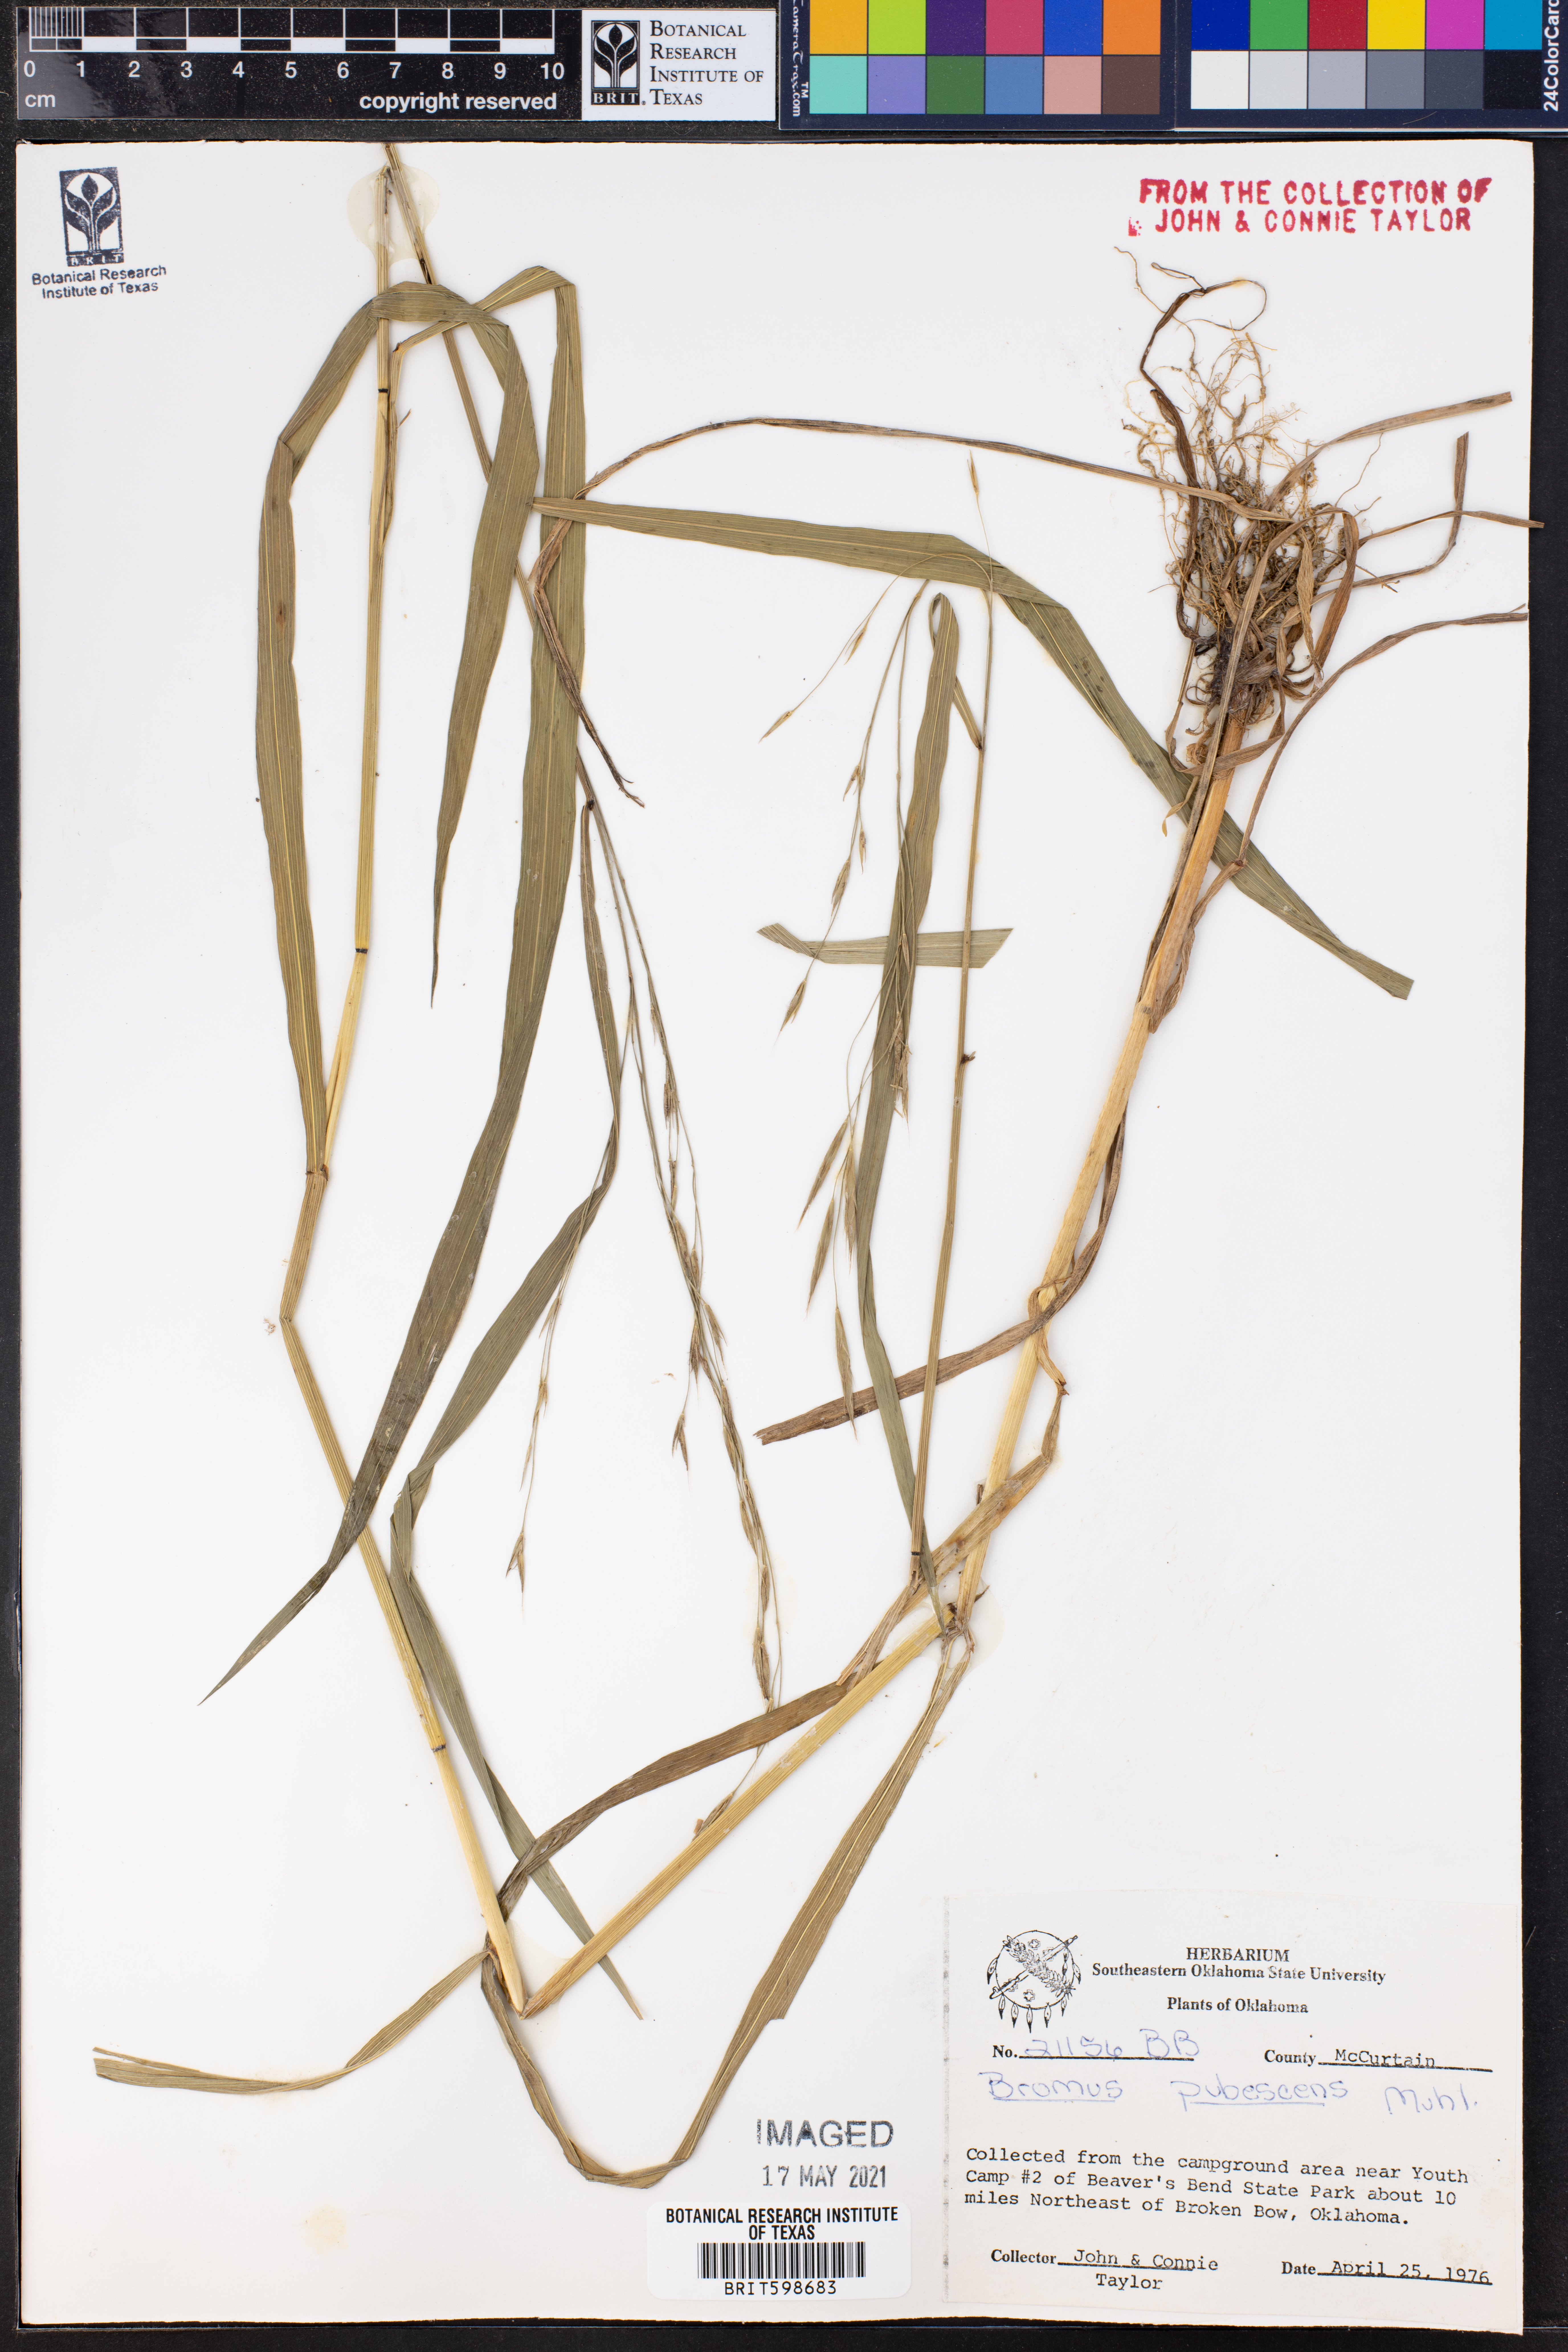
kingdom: Plantae
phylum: Tracheophyta
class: Liliopsida
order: Poales
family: Poaceae
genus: Bromus
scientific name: Bromus pubescens
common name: Hairy wood brome grass
